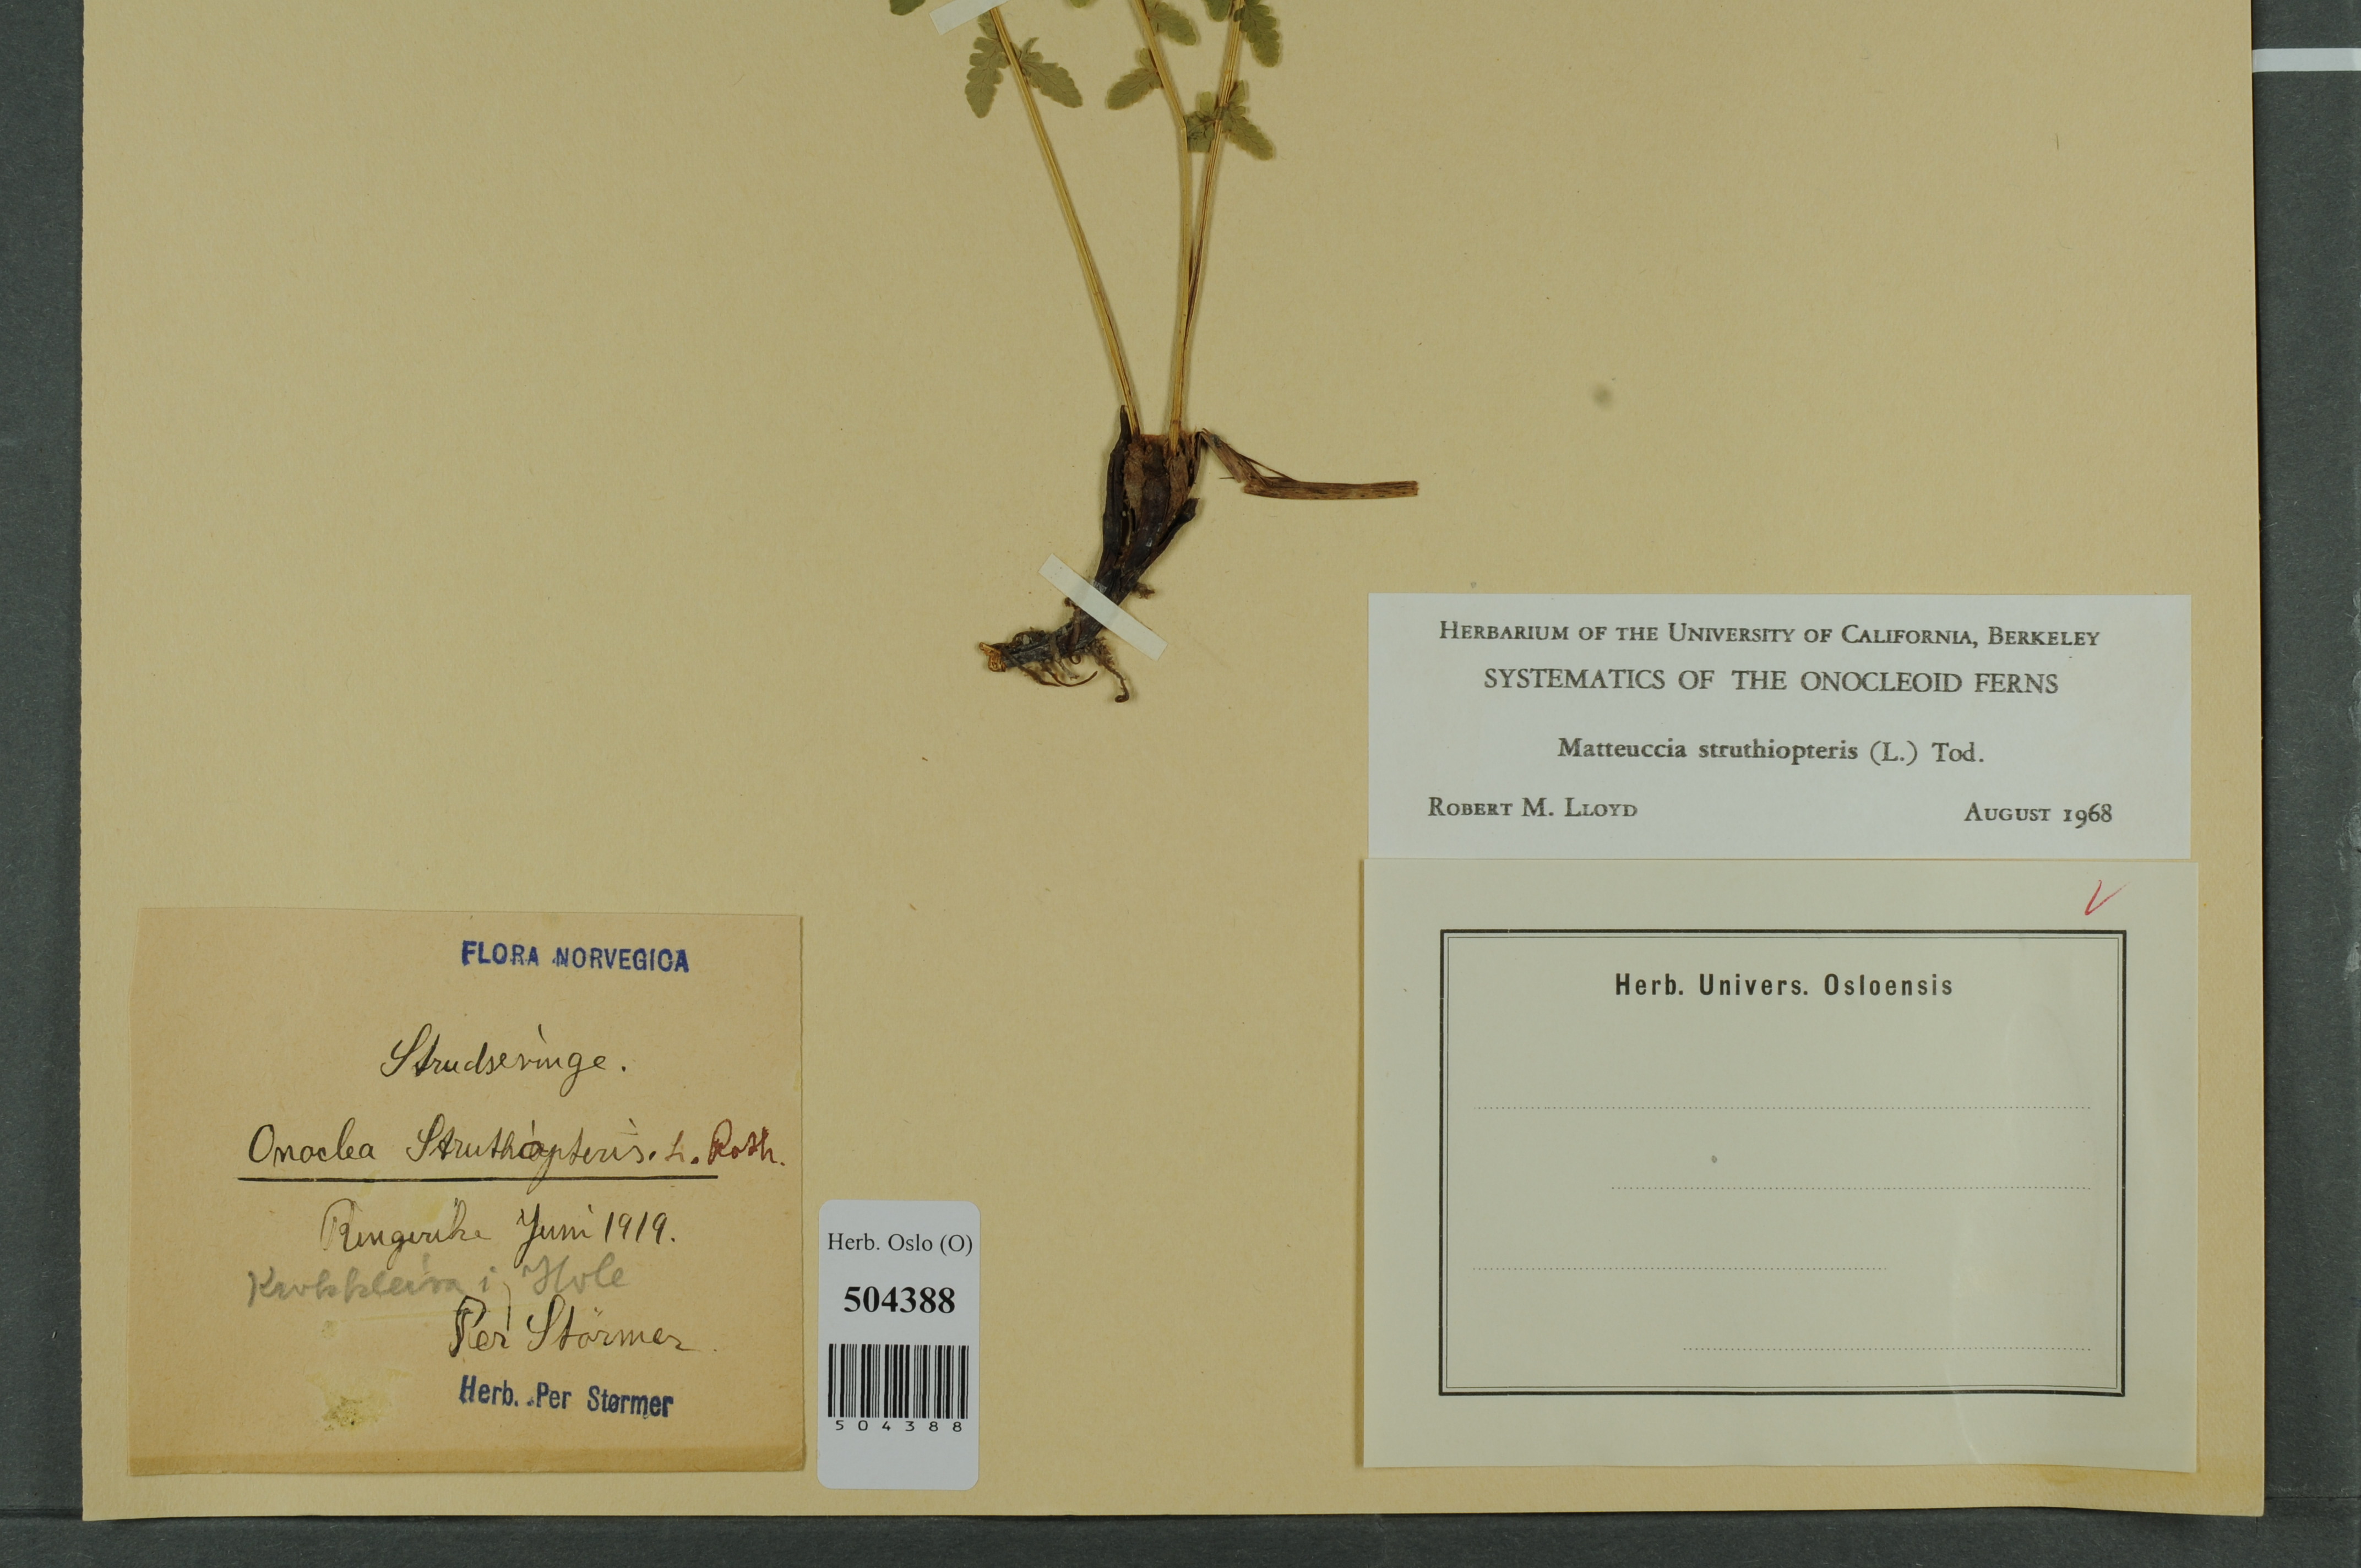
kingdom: Plantae
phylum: Tracheophyta
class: Polypodiopsida
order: Polypodiales
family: Onocleaceae
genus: Matteuccia
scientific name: Matteuccia struthiopteris
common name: Ostrich fern
